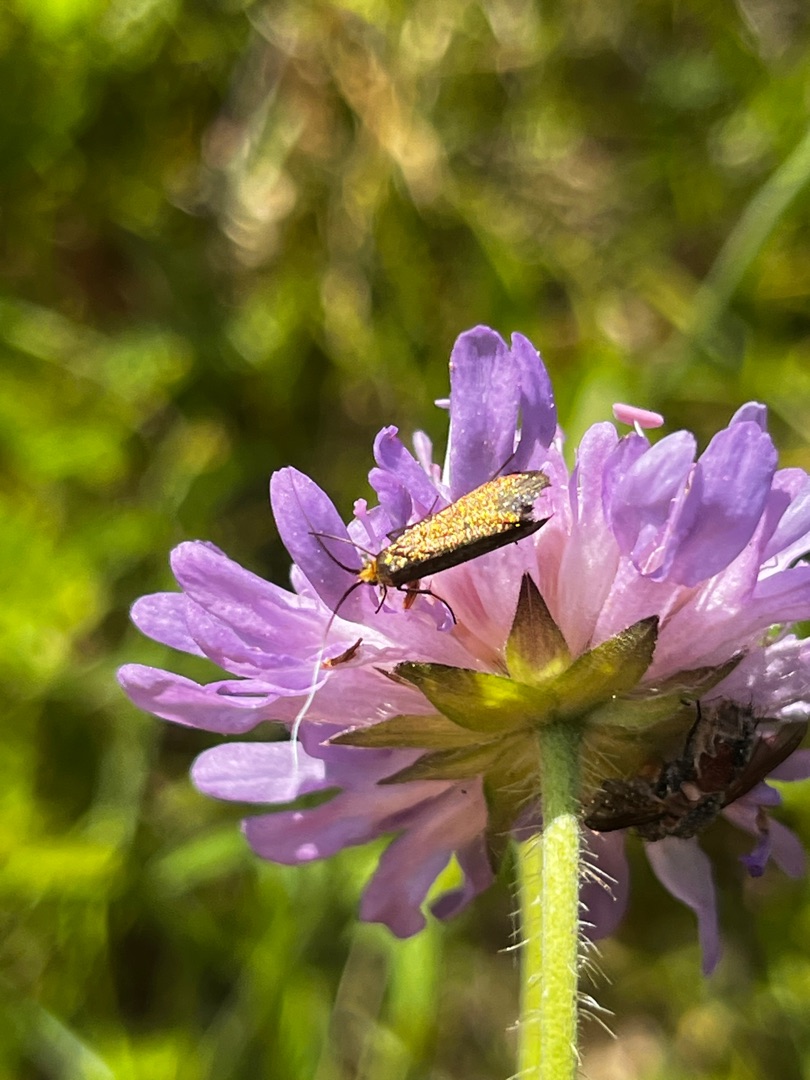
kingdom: Animalia
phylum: Arthropoda
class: Insecta
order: Lepidoptera
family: Adelidae
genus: Nemophora
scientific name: Nemophora metallica
